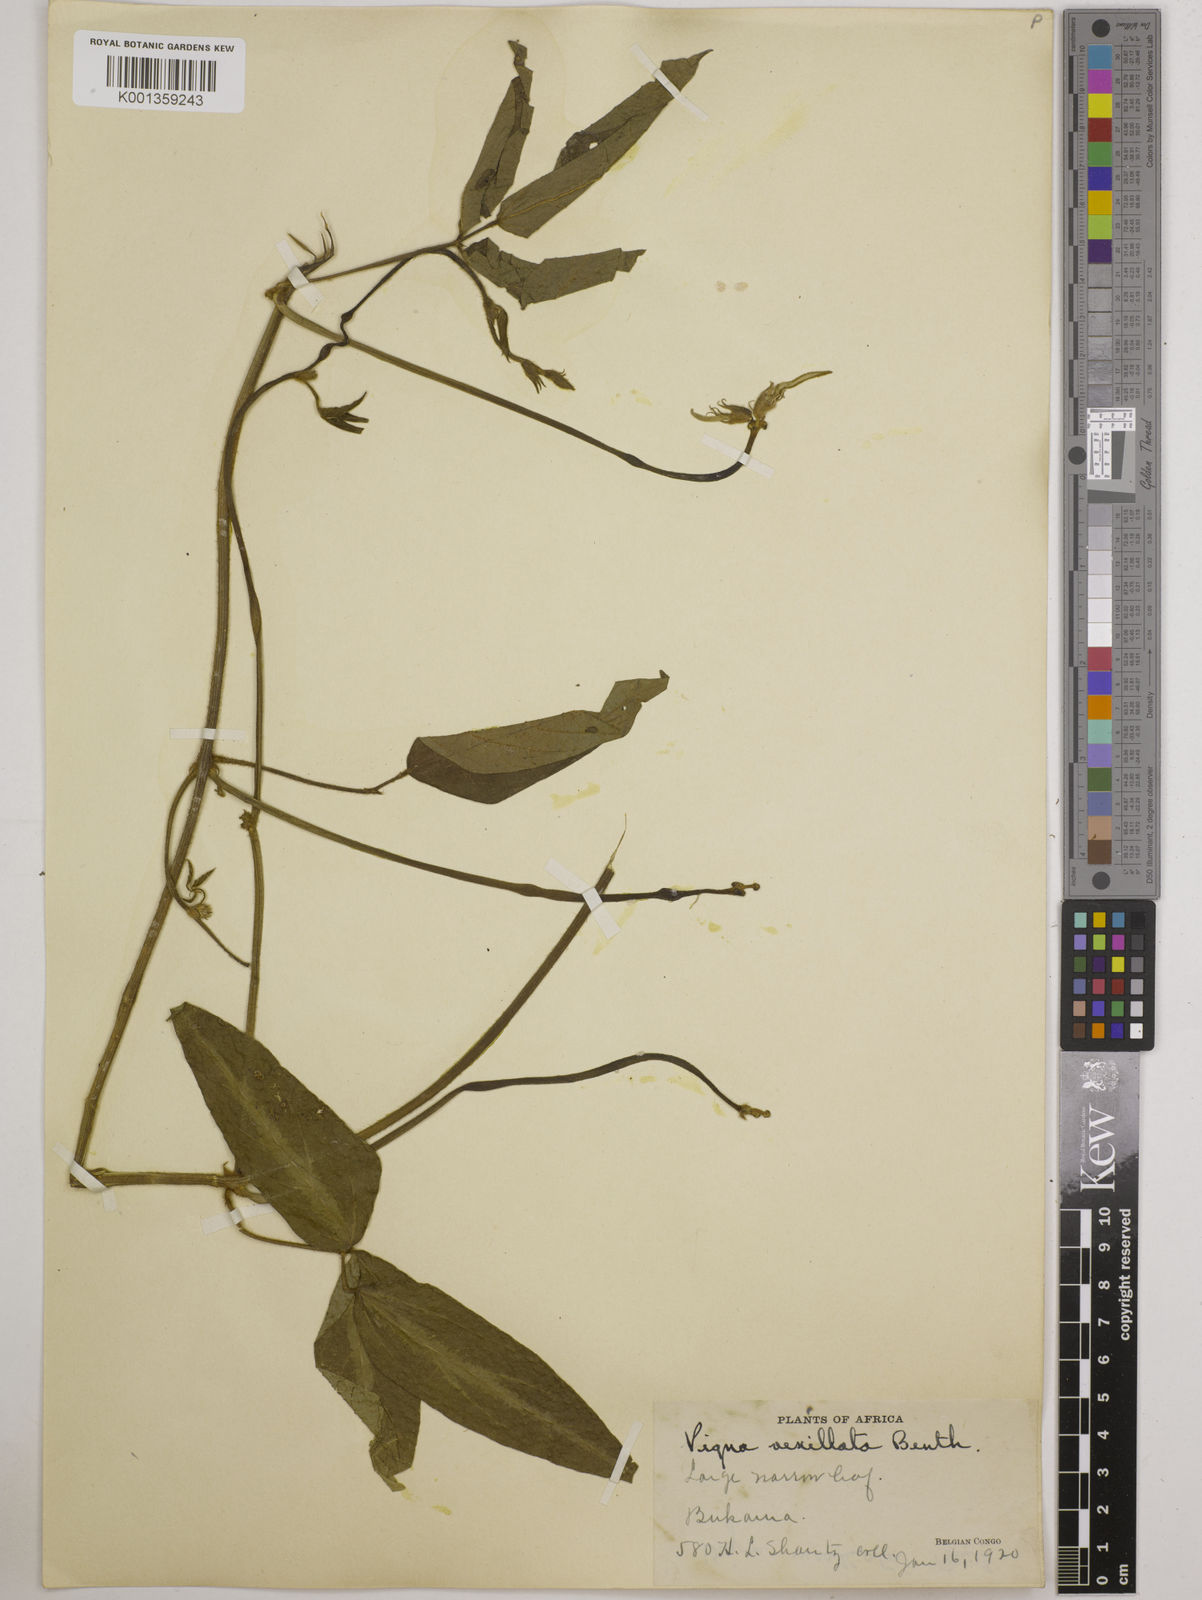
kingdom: Plantae
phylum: Tracheophyta
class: Magnoliopsida
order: Fabales
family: Fabaceae
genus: Vigna
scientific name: Vigna vexillata
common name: Zombi pea
